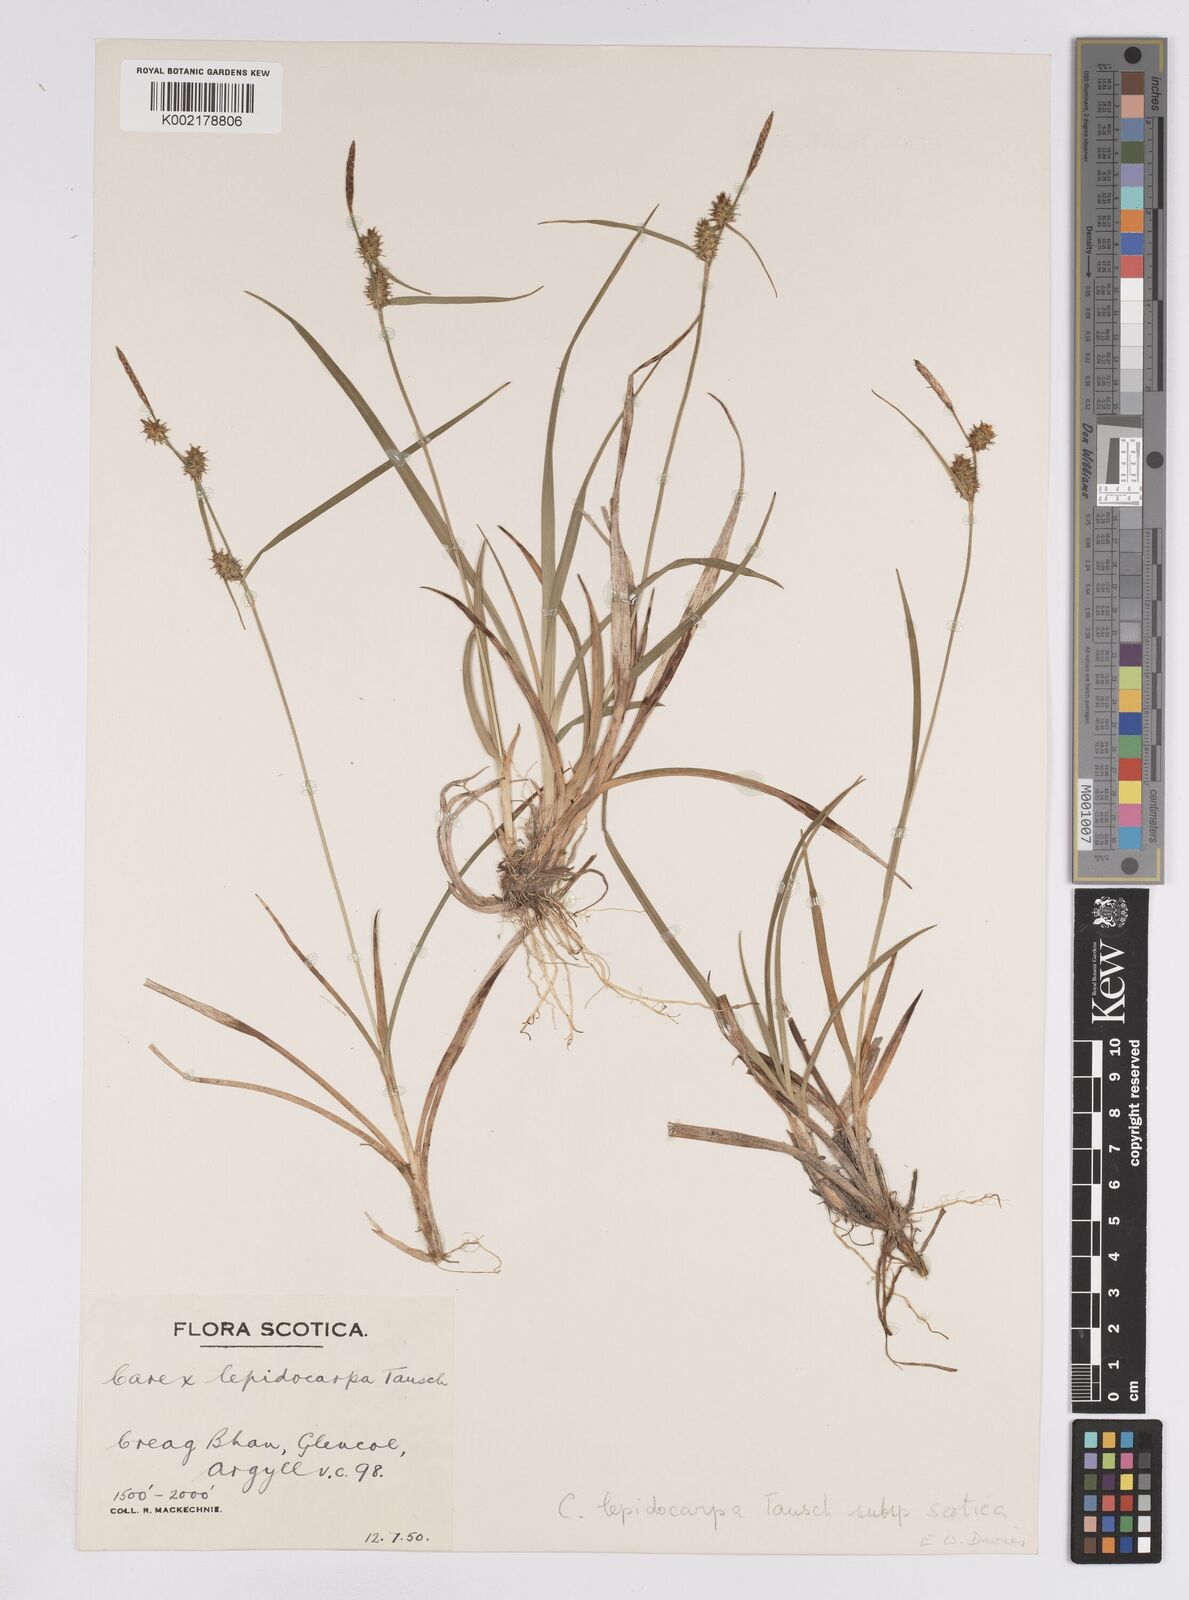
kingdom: Plantae
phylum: Tracheophyta
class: Liliopsida
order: Poales
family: Cyperaceae
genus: Carex
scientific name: Carex lepidocarpa
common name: Long-stalked yellow-sedge
